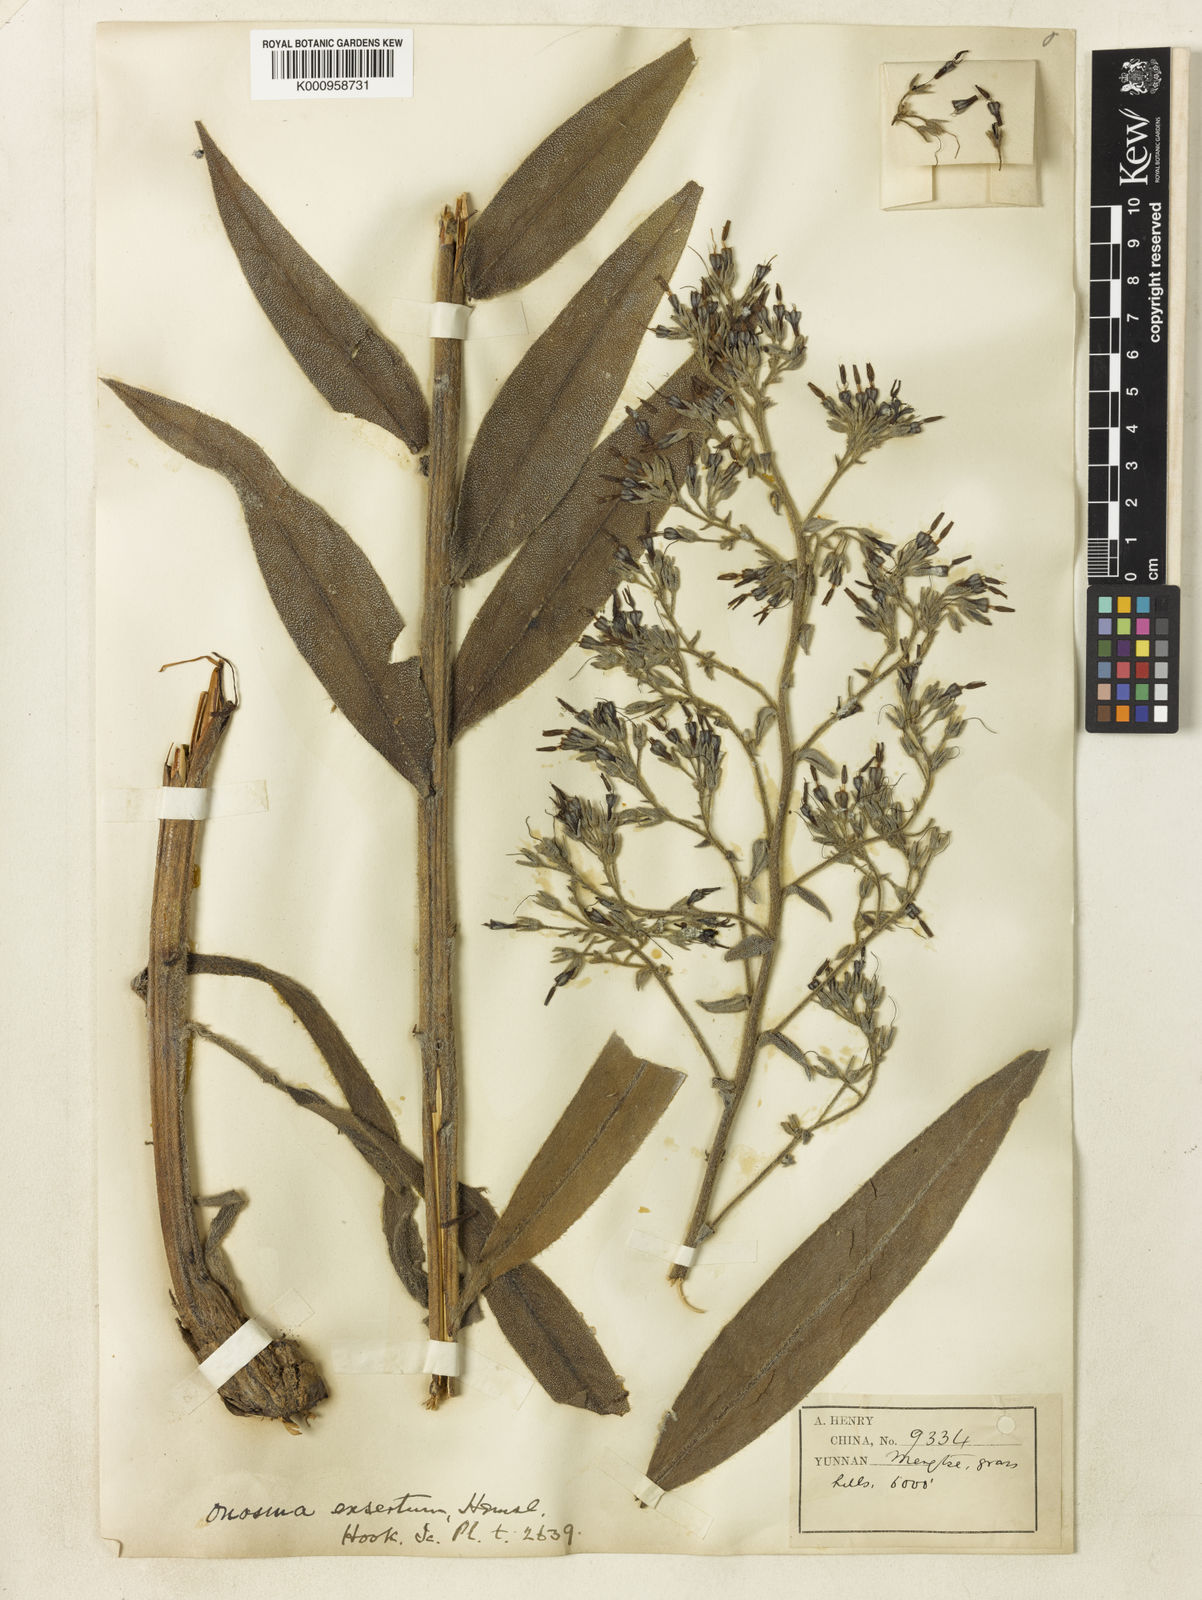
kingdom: Plantae
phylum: Tracheophyta
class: Magnoliopsida
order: Boraginales
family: Boraginaceae
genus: Maharanga
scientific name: Maharanga exserta
